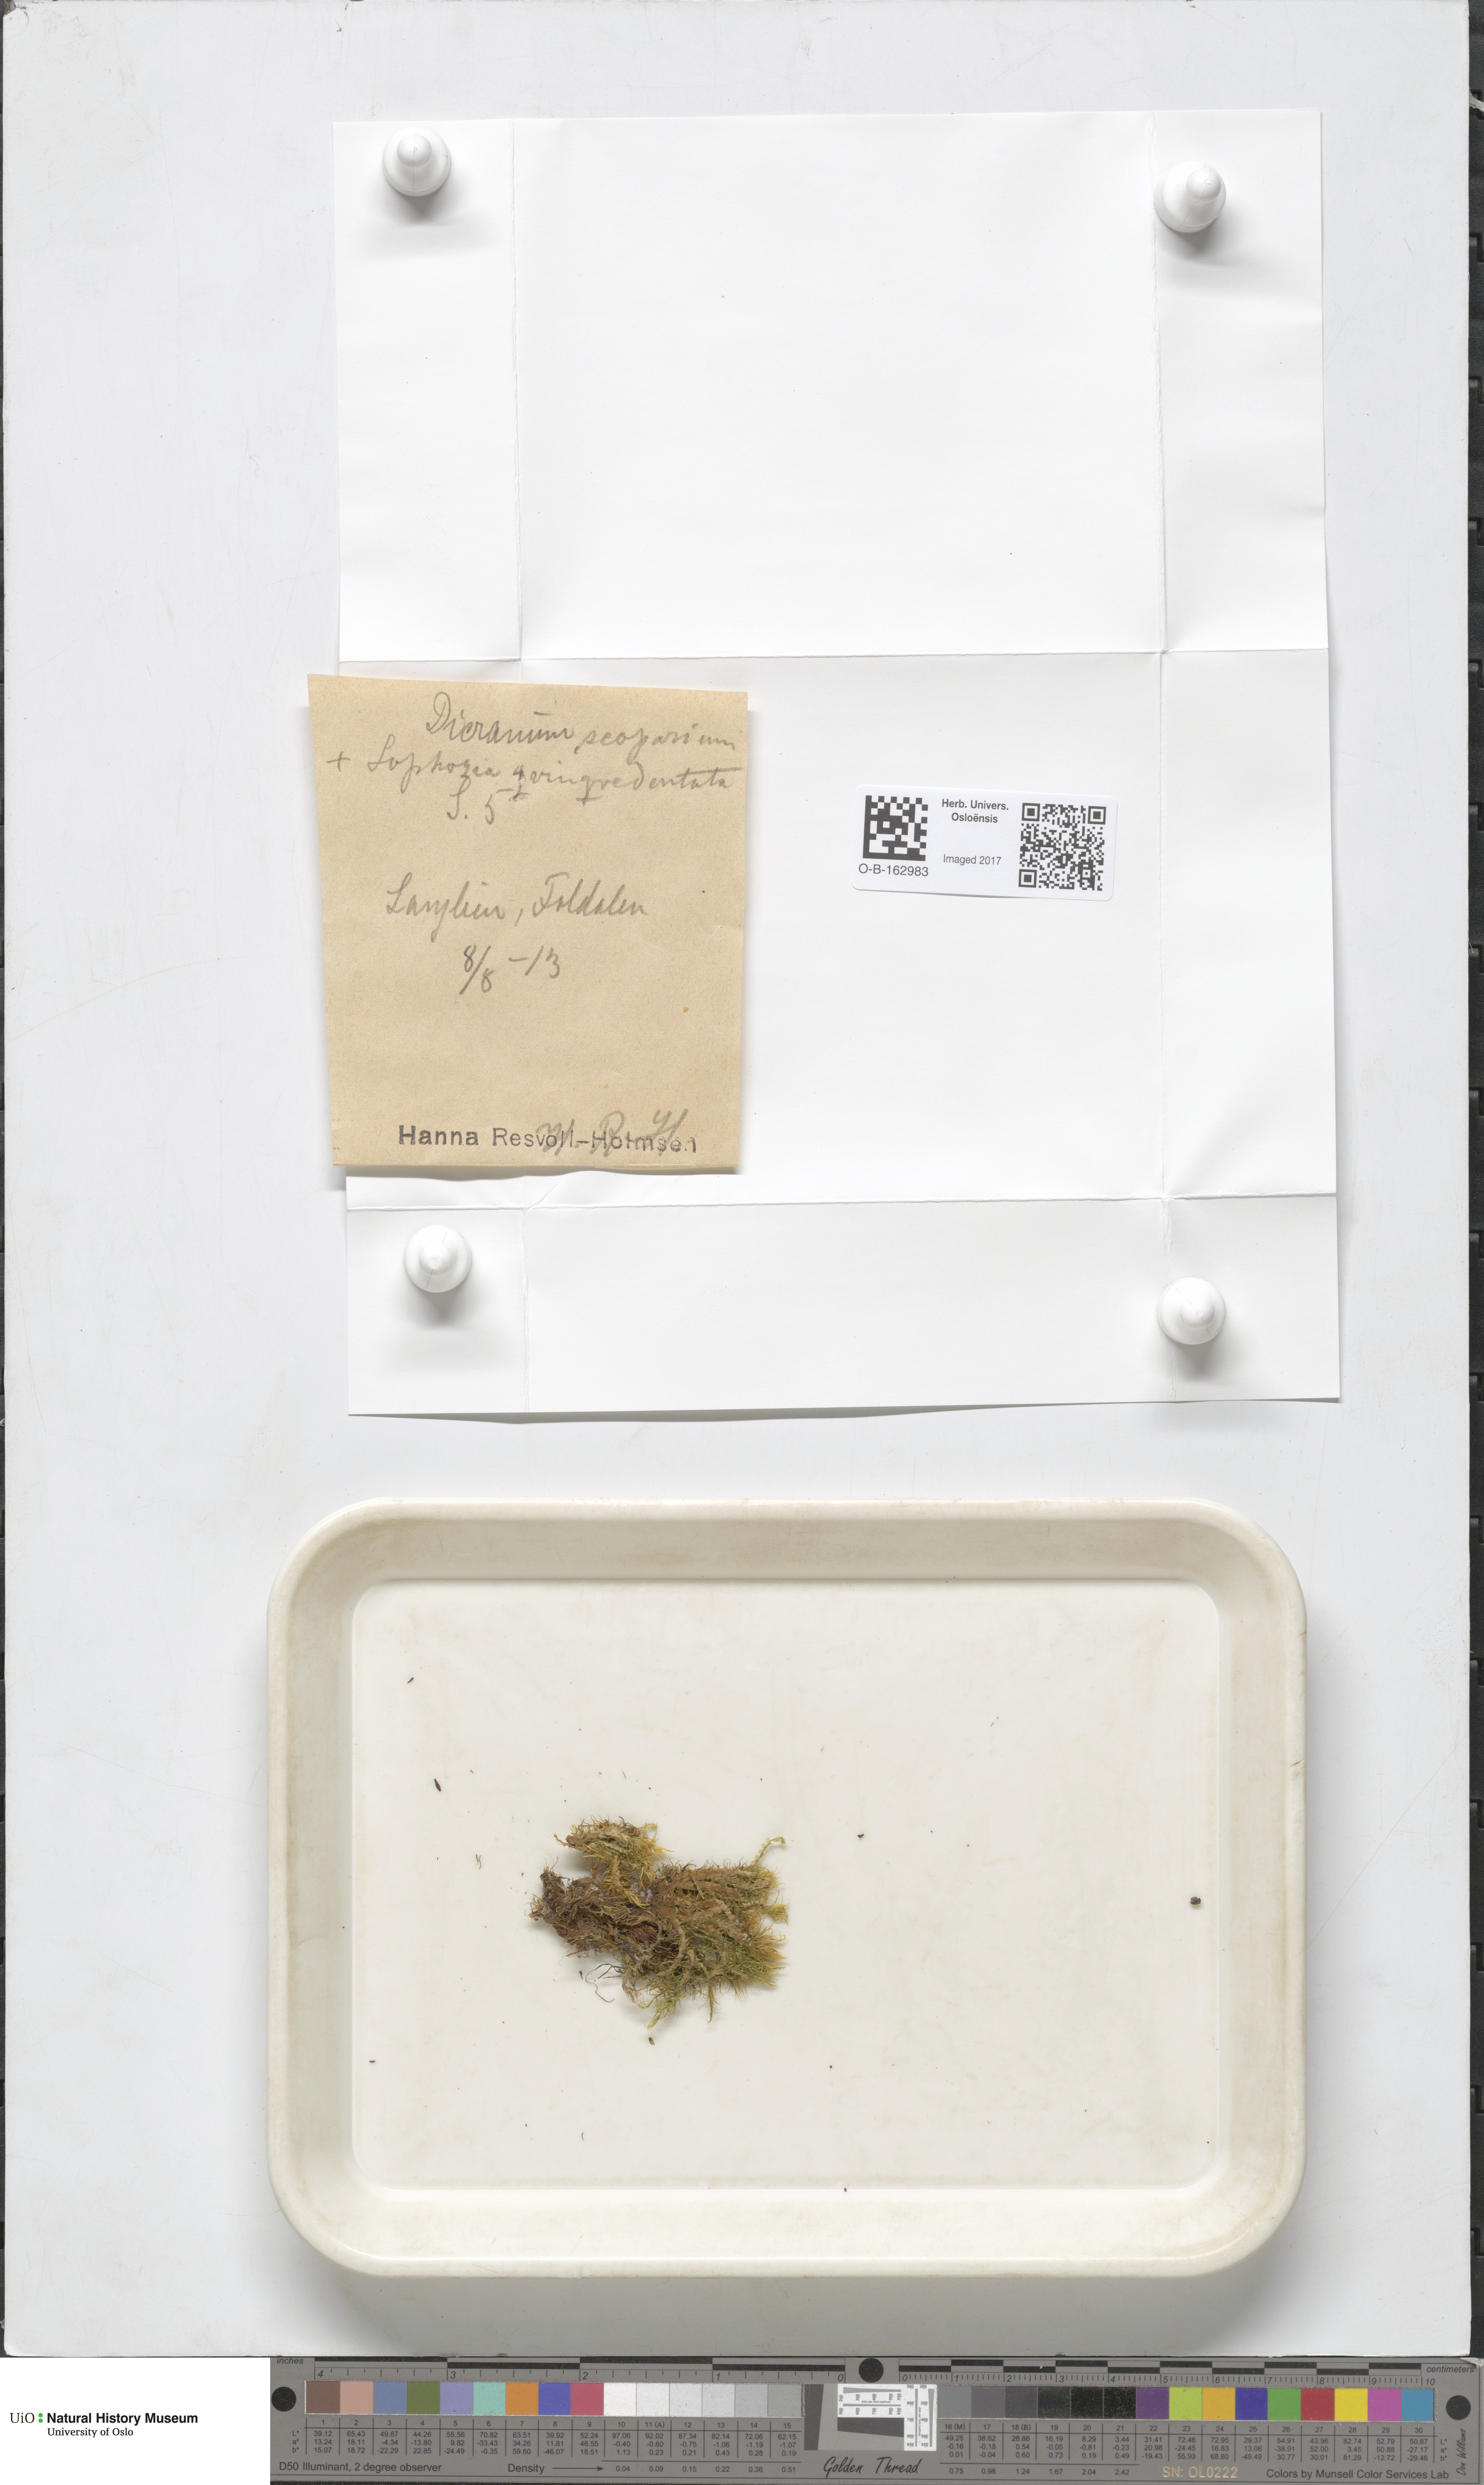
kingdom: Plantae
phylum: Bryophyta
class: Bryopsida
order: Dicranales
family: Dicranaceae
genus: Dicranum
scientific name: Dicranum scoparium
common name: Broom fork-moss
